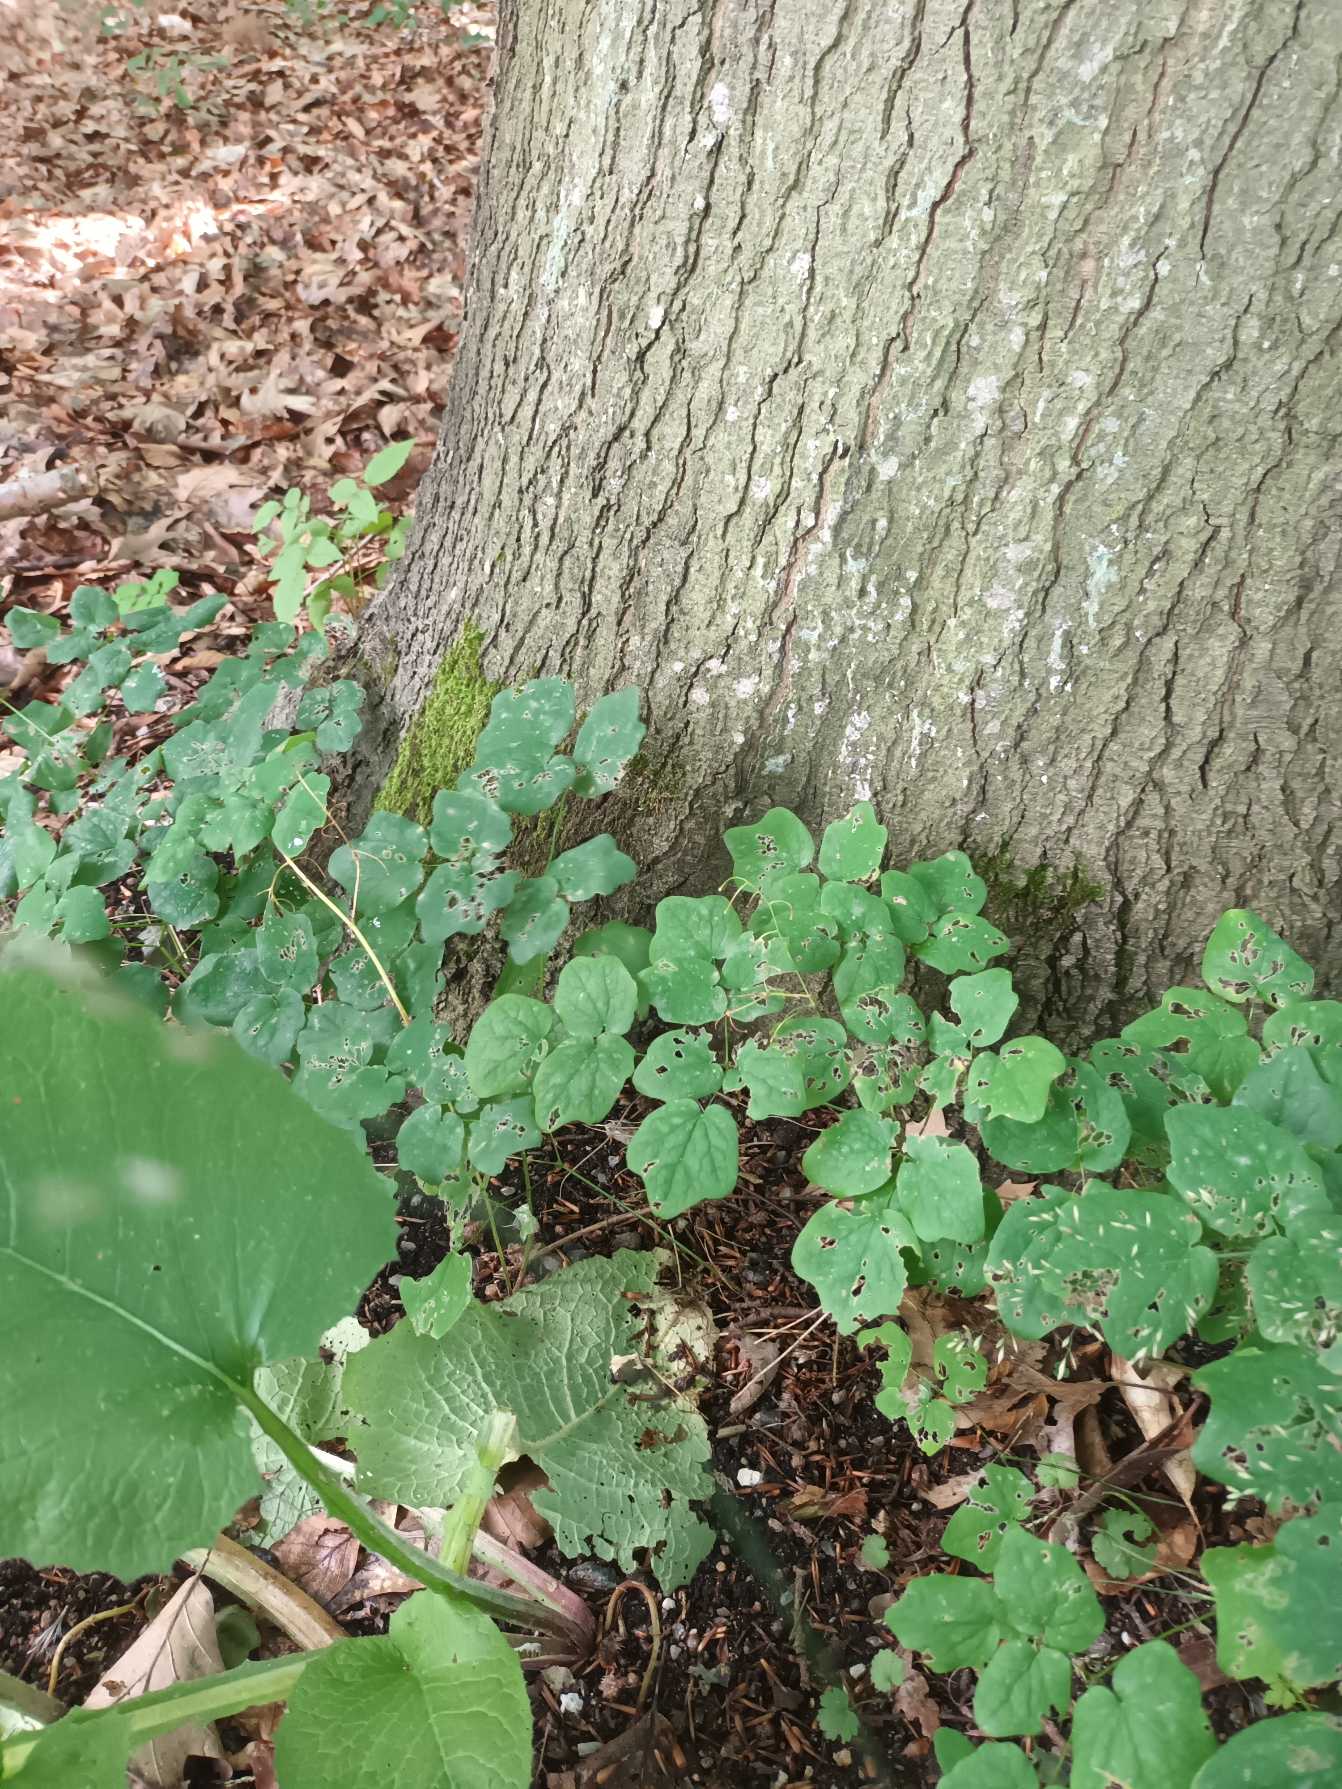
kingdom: Plantae
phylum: Tracheophyta
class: Magnoliopsida
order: Ranunculales
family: Berberidaceae
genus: Vancouveria
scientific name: Vancouveria hexandra
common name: Amerikansk bispehue
